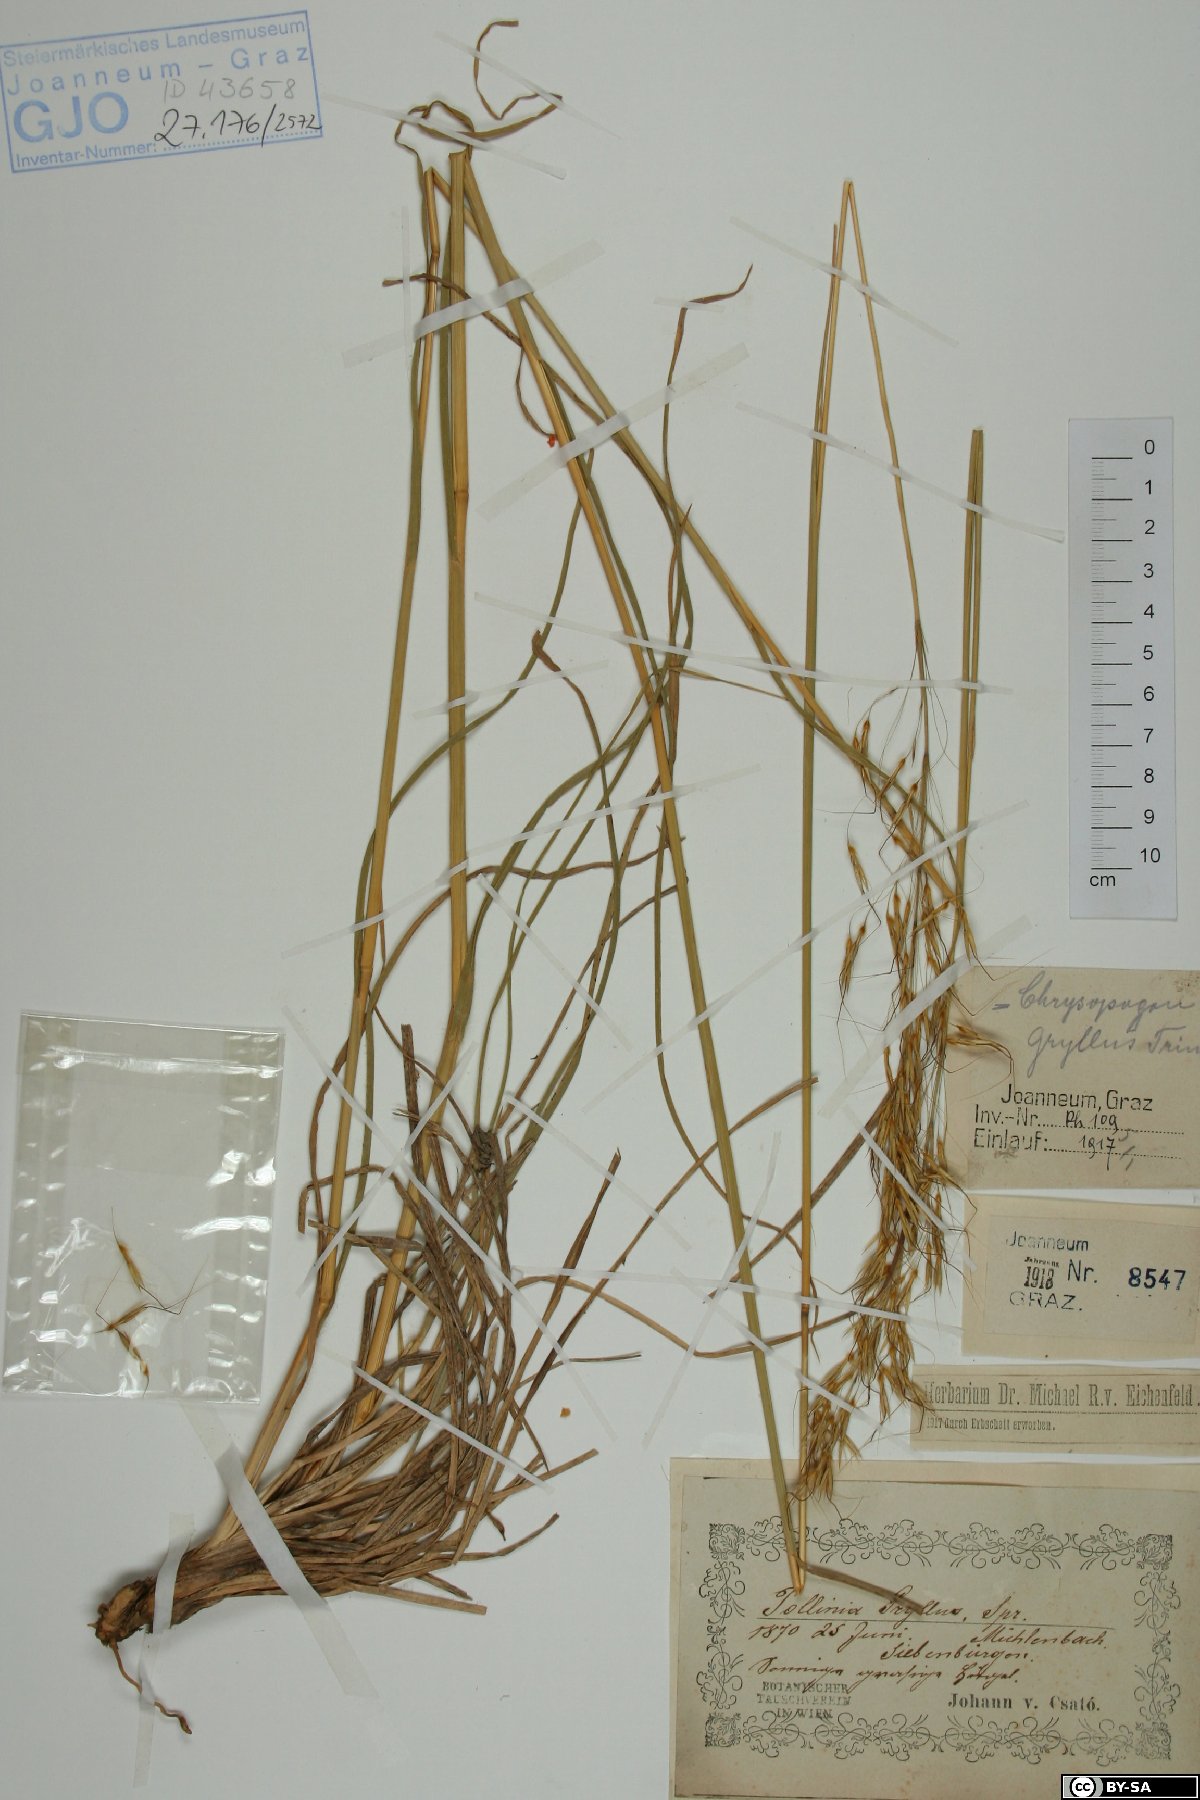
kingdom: Plantae
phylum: Tracheophyta
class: Liliopsida
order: Poales
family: Poaceae
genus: Chrysopogon
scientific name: Chrysopogon gryllus
